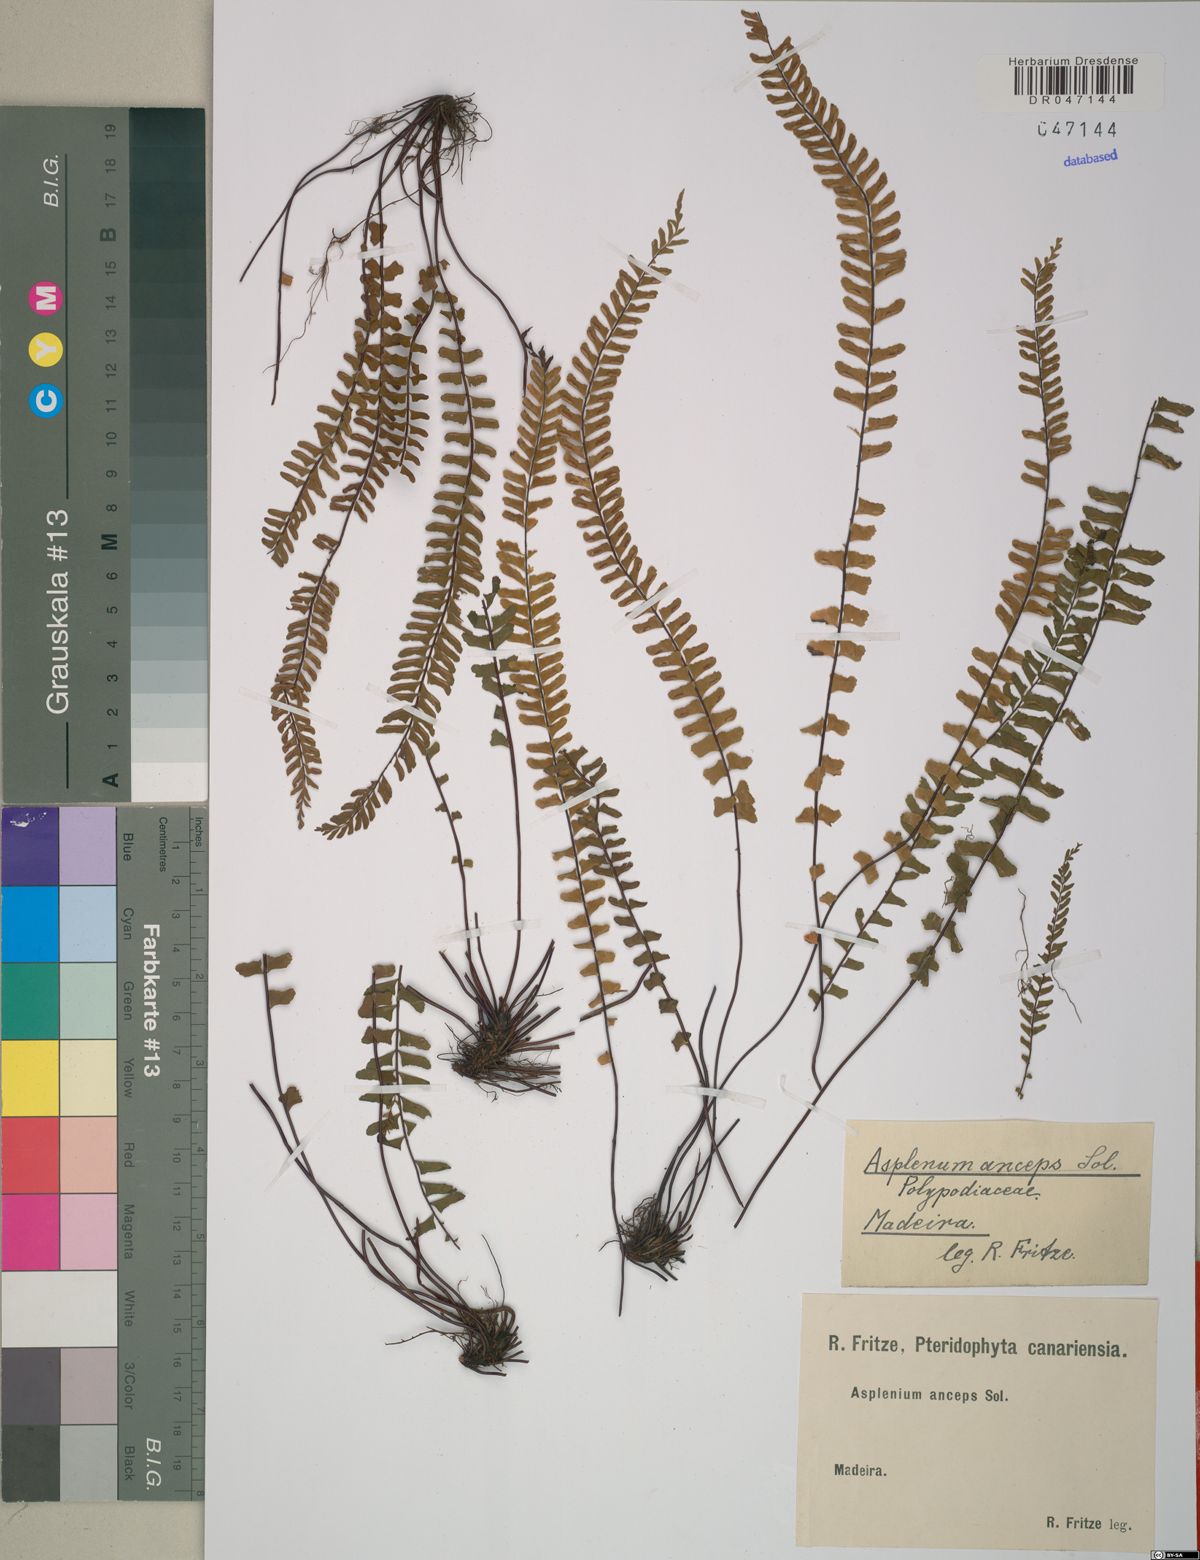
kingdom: Plantae
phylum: Tracheophyta
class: Polypodiopsida
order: Polypodiales
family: Aspleniaceae
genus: Asplenium
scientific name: Asplenium anceps
